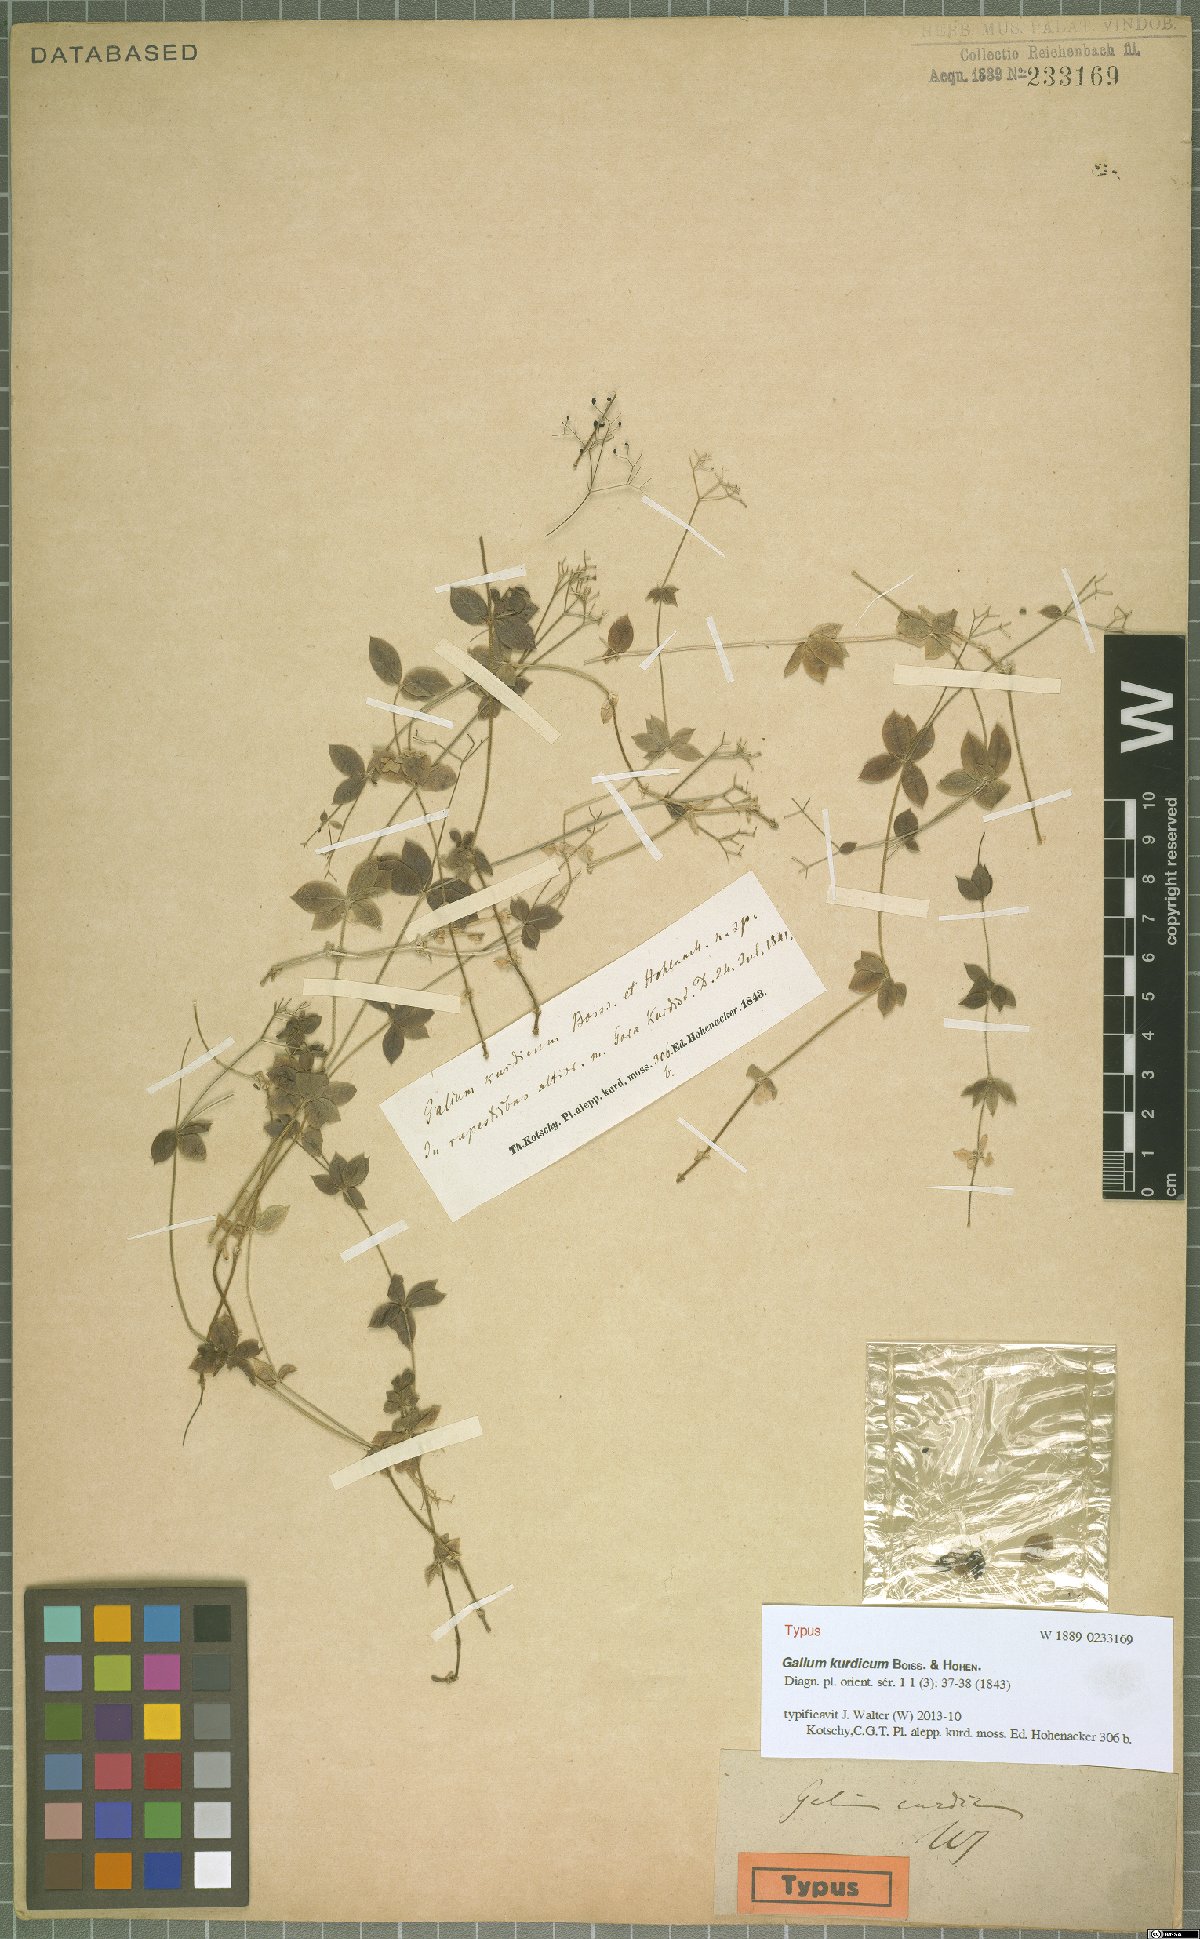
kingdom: Plantae
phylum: Tracheophyta
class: Magnoliopsida
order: Gentianales
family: Rubiaceae
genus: Galium
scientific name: Galium kurdicum
